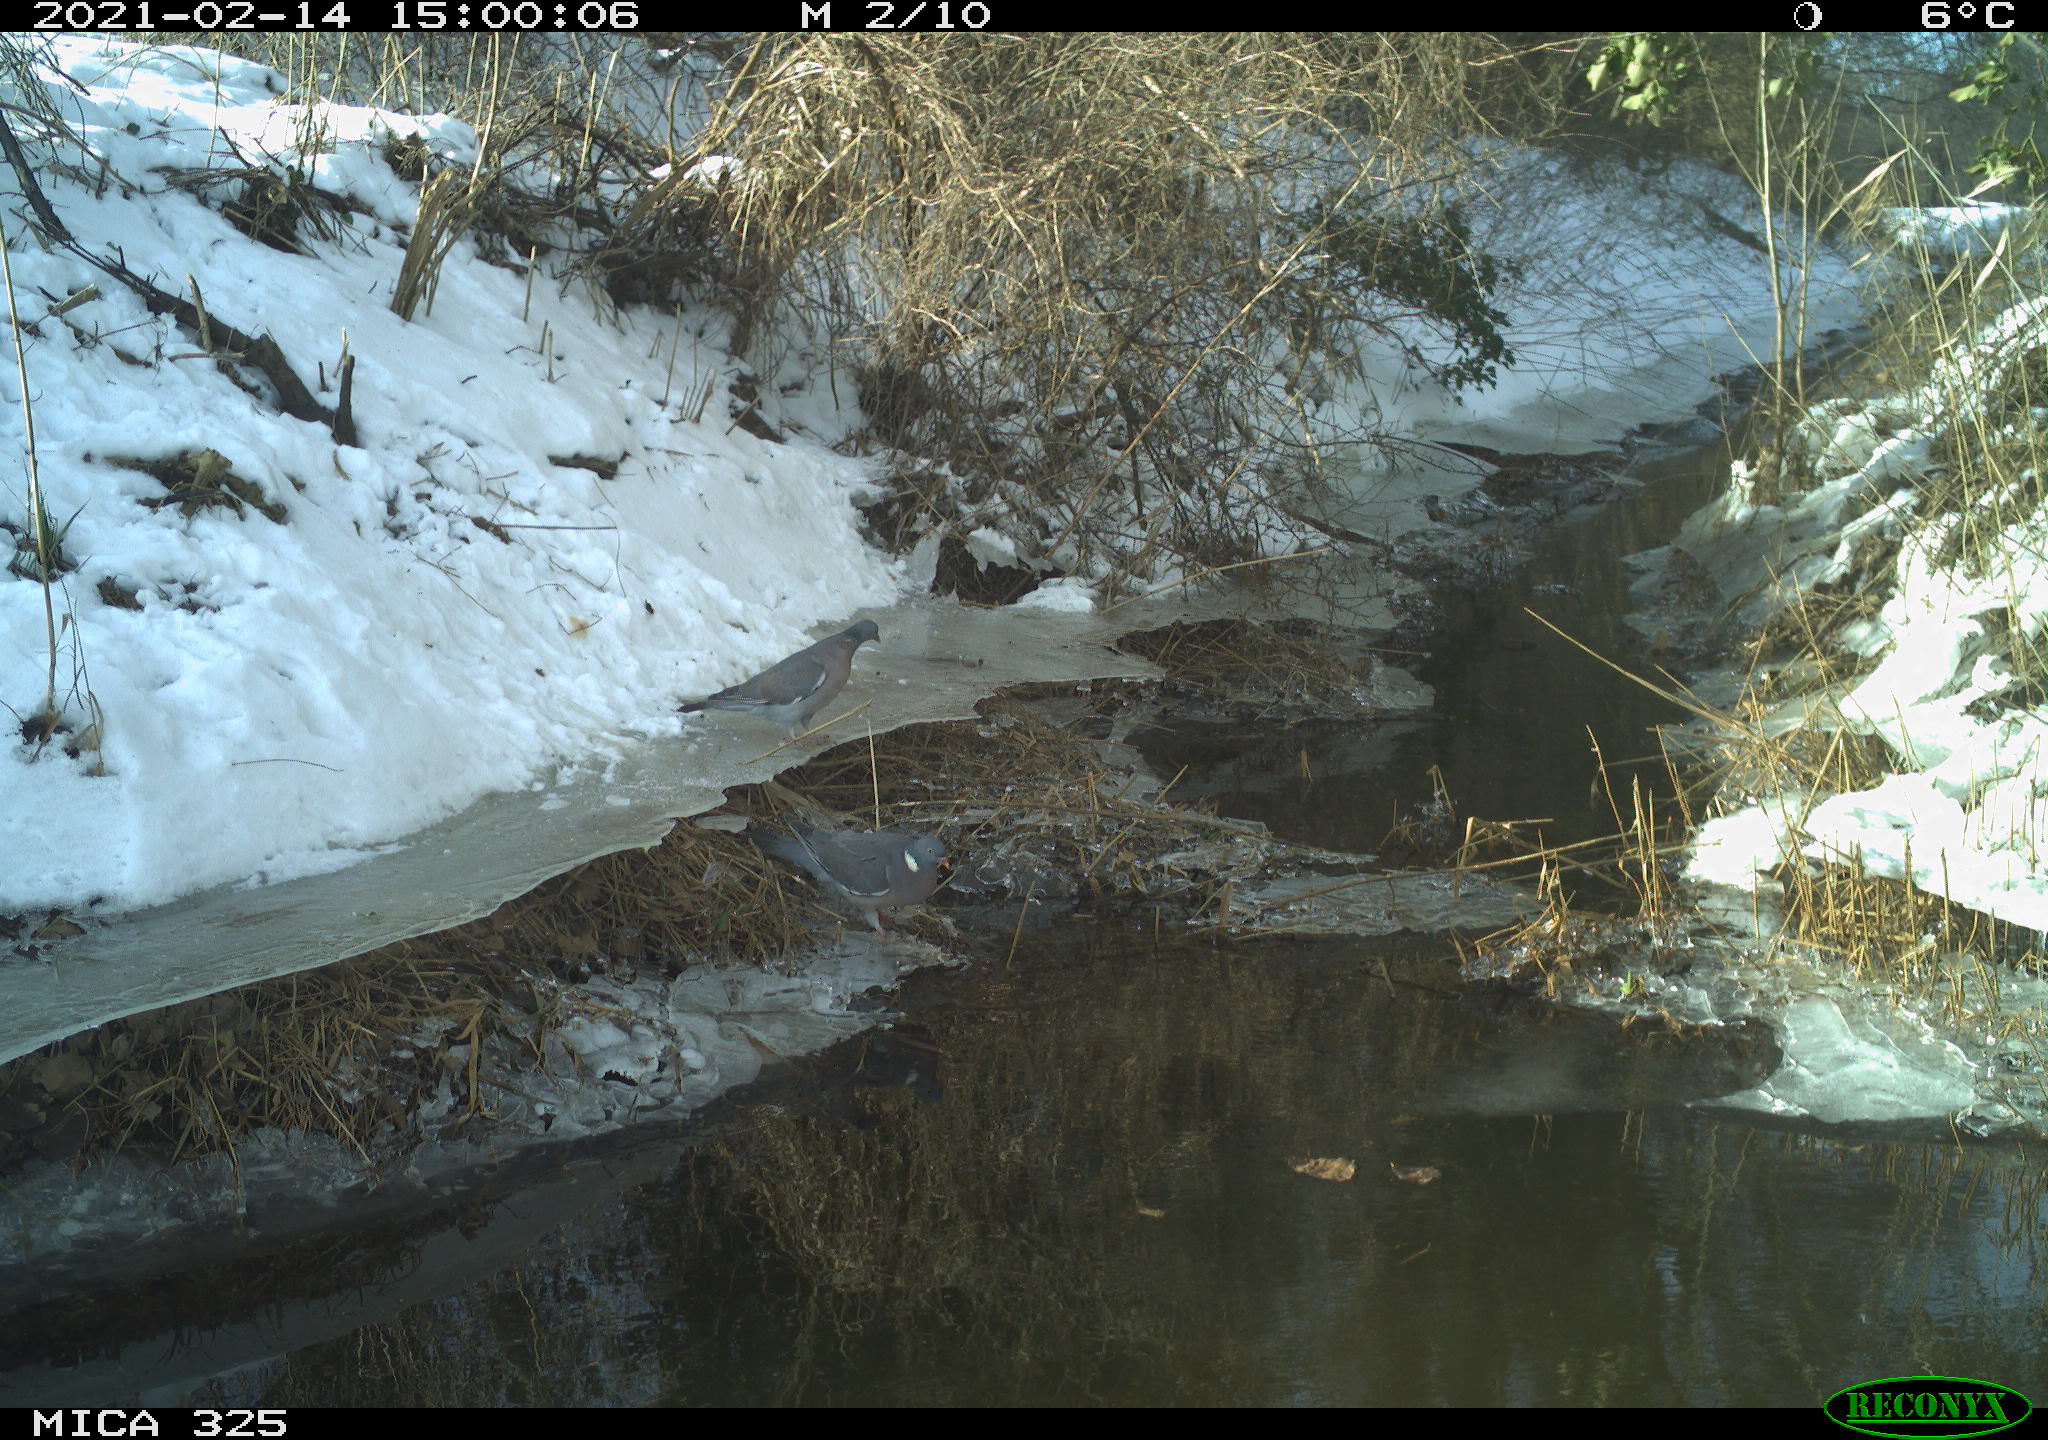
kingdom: Animalia
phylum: Chordata
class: Aves
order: Columbiformes
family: Columbidae
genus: Columba
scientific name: Columba palumbus
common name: Common wood pigeon
